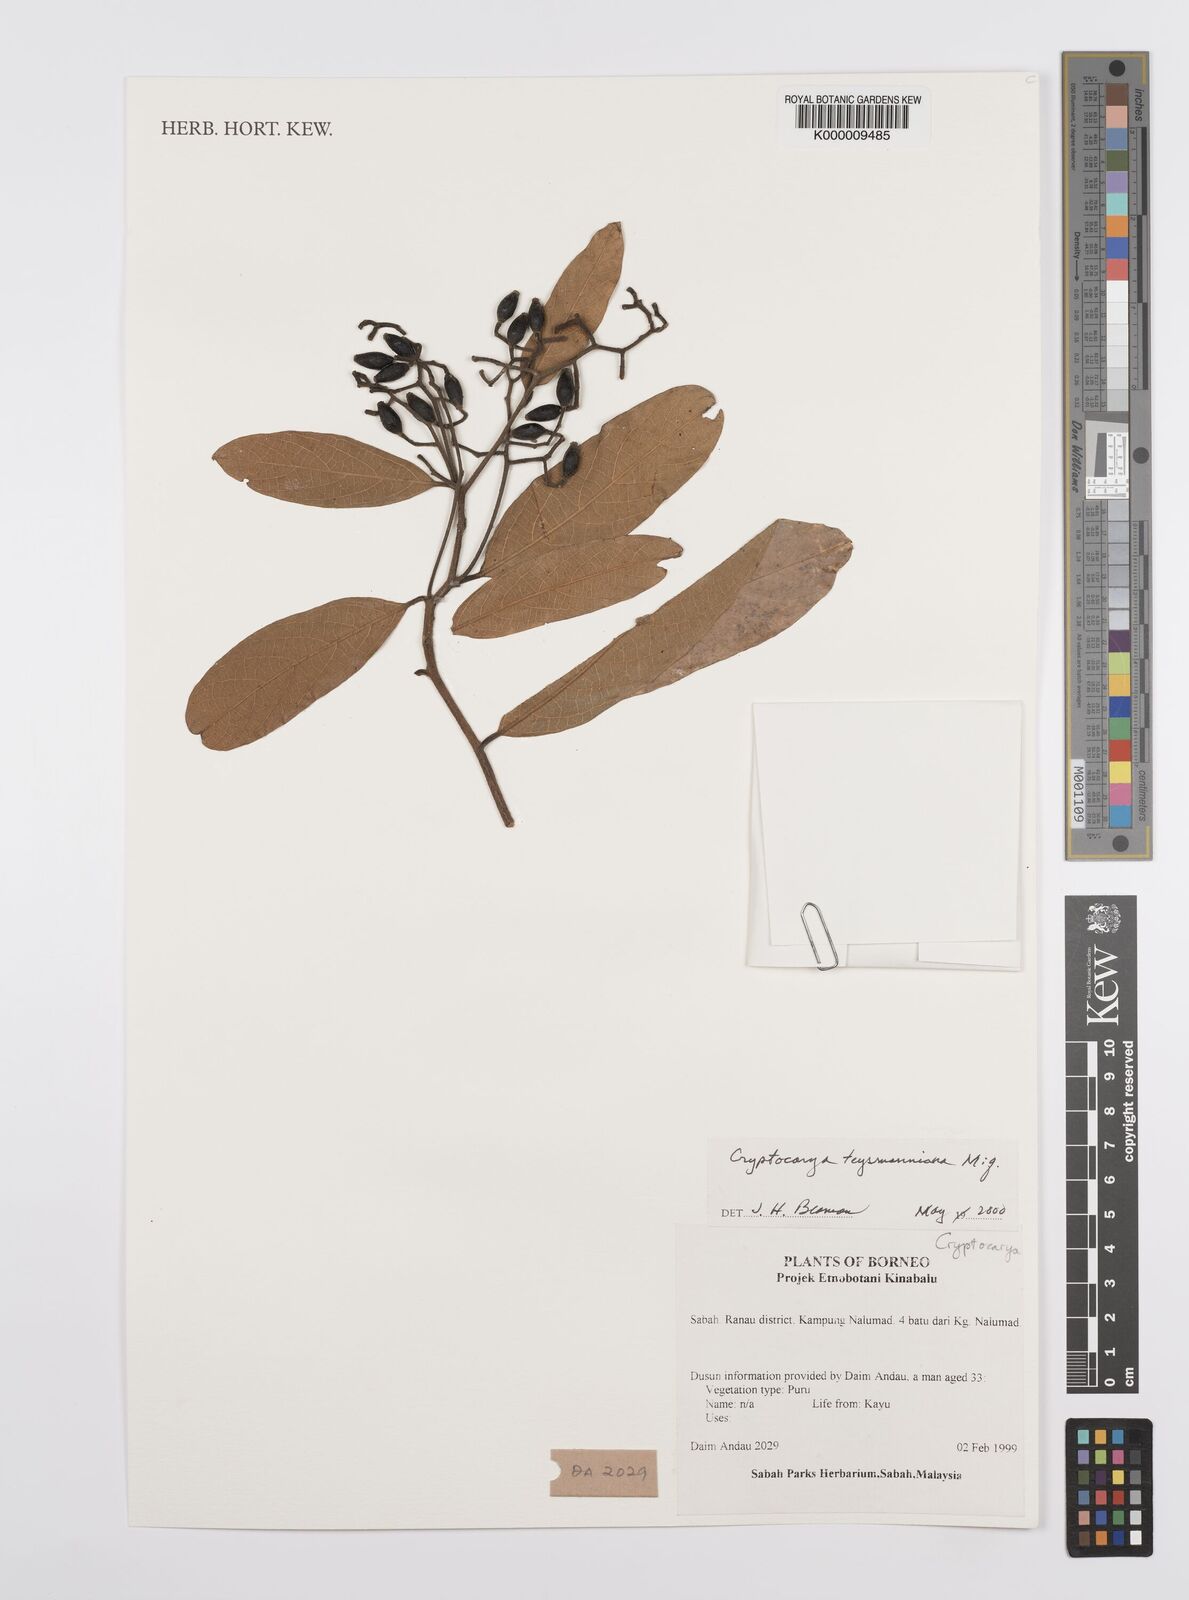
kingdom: Plantae
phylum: Tracheophyta
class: Magnoliopsida
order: Laurales
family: Lauraceae
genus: Cryptocarya
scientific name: Cryptocarya teysmanniana
